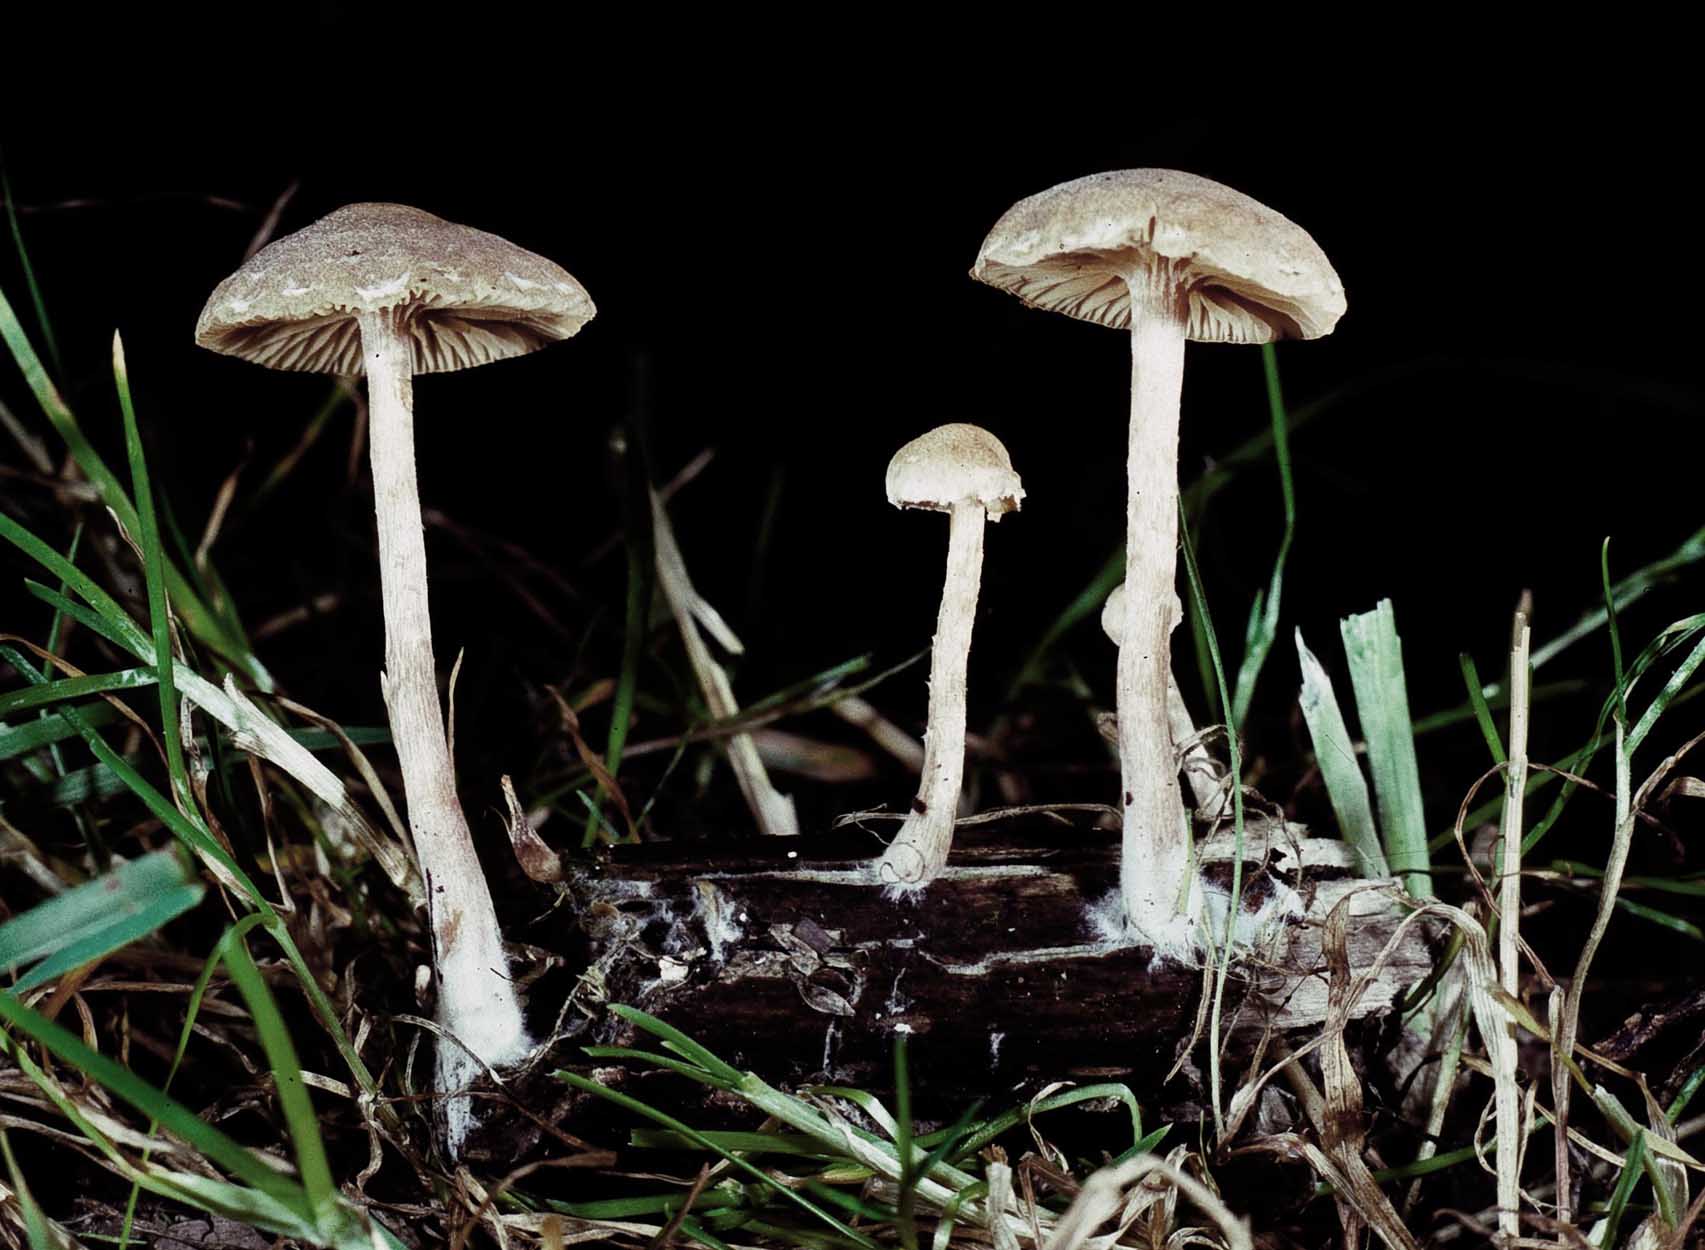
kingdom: Fungi
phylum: Basidiomycota
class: Agaricomycetes
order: Agaricales
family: Tubariaceae
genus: Tubaria
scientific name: Tubaria conspersa
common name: bleg fnughat
